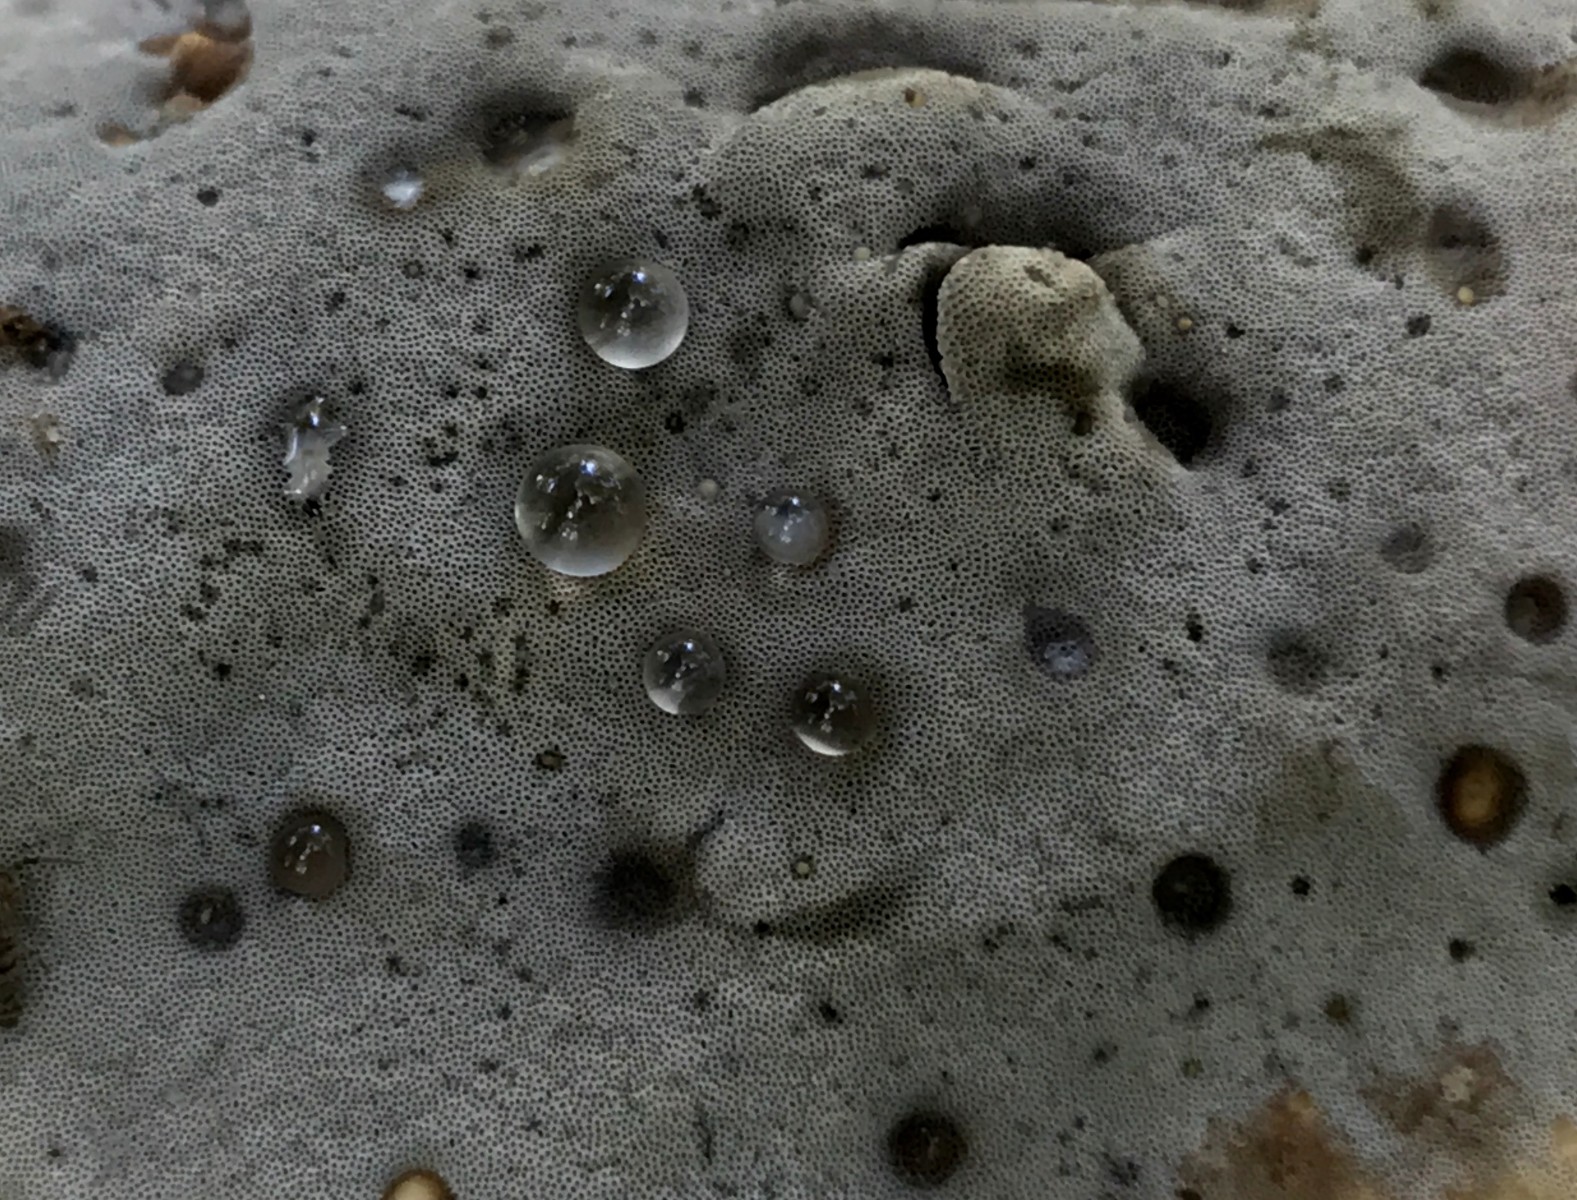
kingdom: Fungi
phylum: Basidiomycota
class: Agaricomycetes
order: Polyporales
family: Phanerochaetaceae
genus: Bjerkandera
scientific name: Bjerkandera adusta
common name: sveden sodporesvamp
